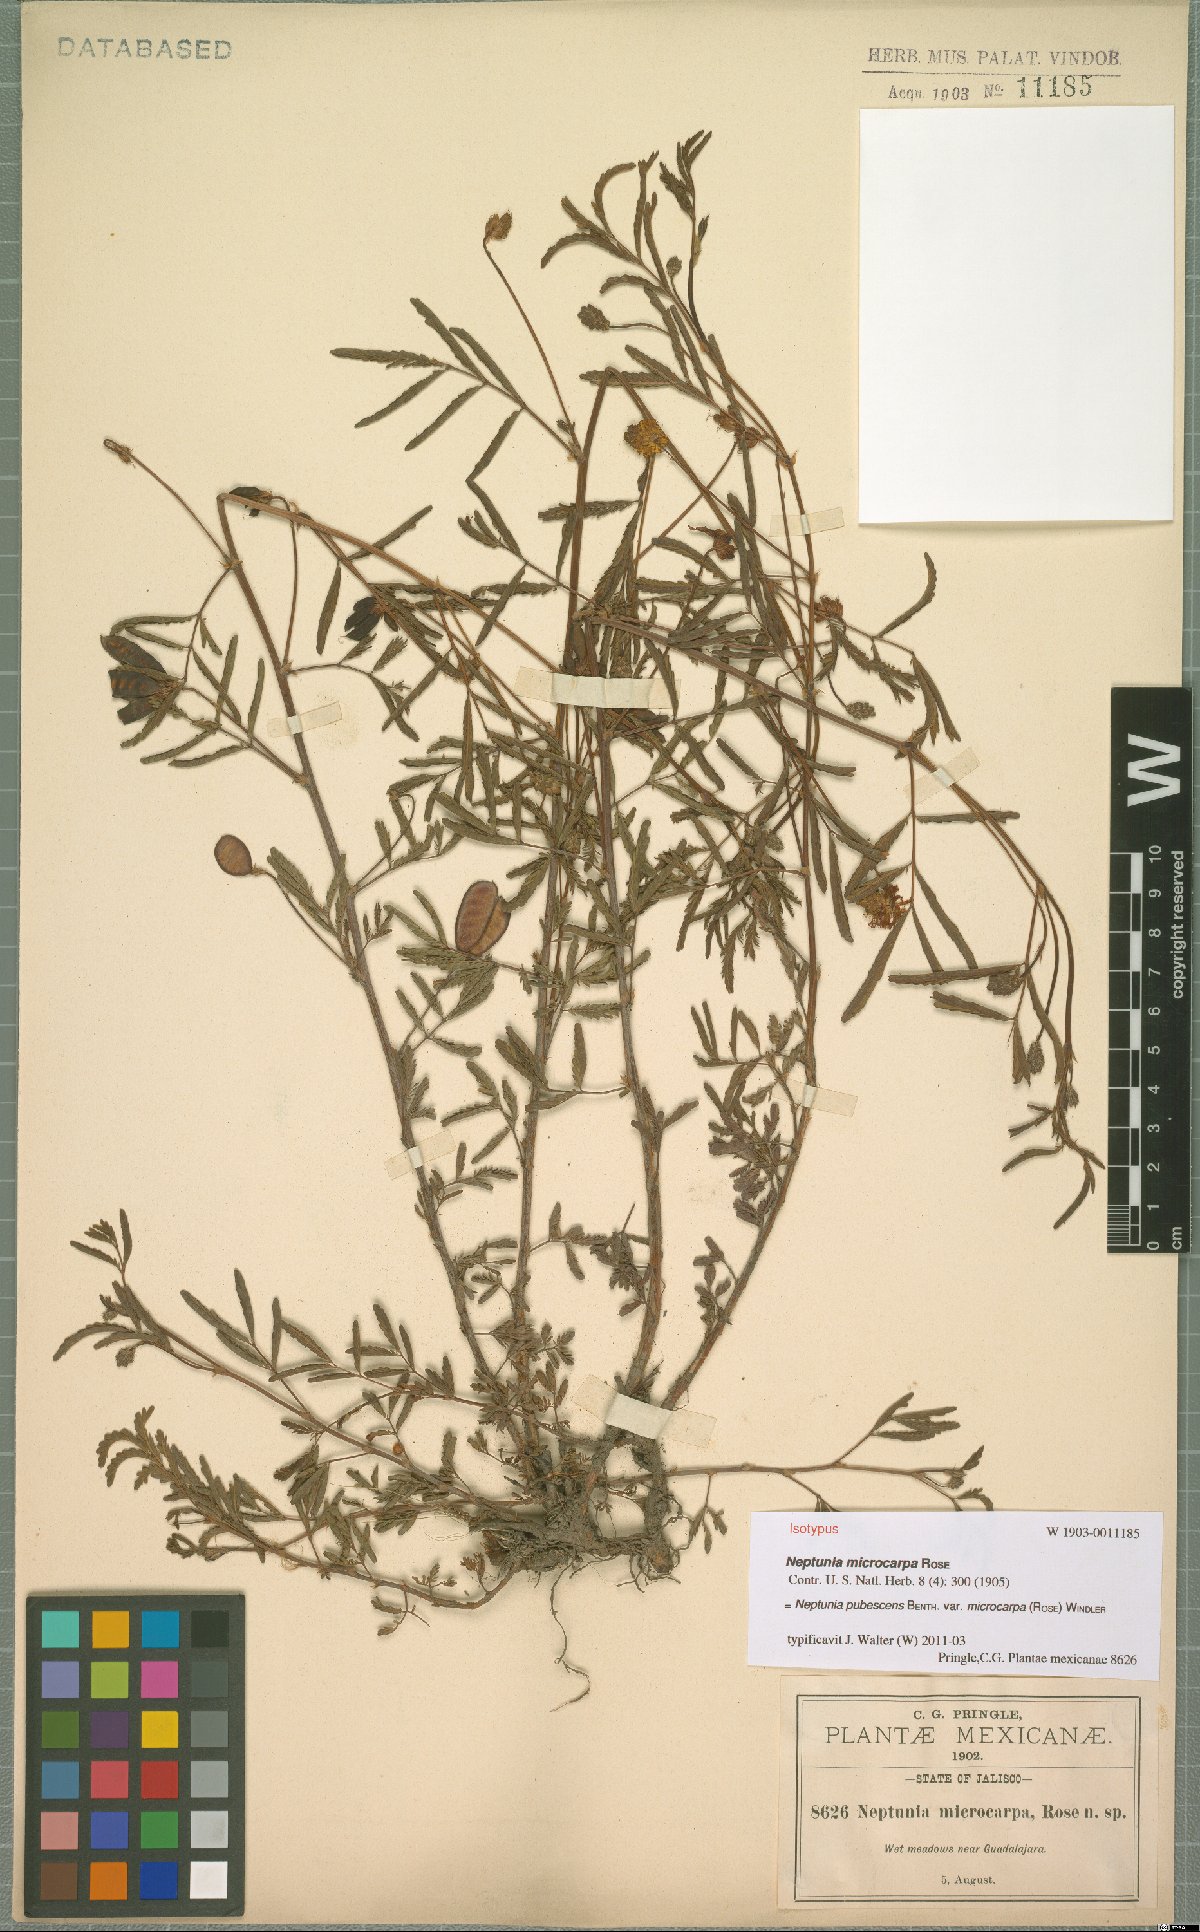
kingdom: Plantae
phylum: Tracheophyta
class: Magnoliopsida
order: Fabales
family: Fabaceae
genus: Neptunia
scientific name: Neptunia pubescens
